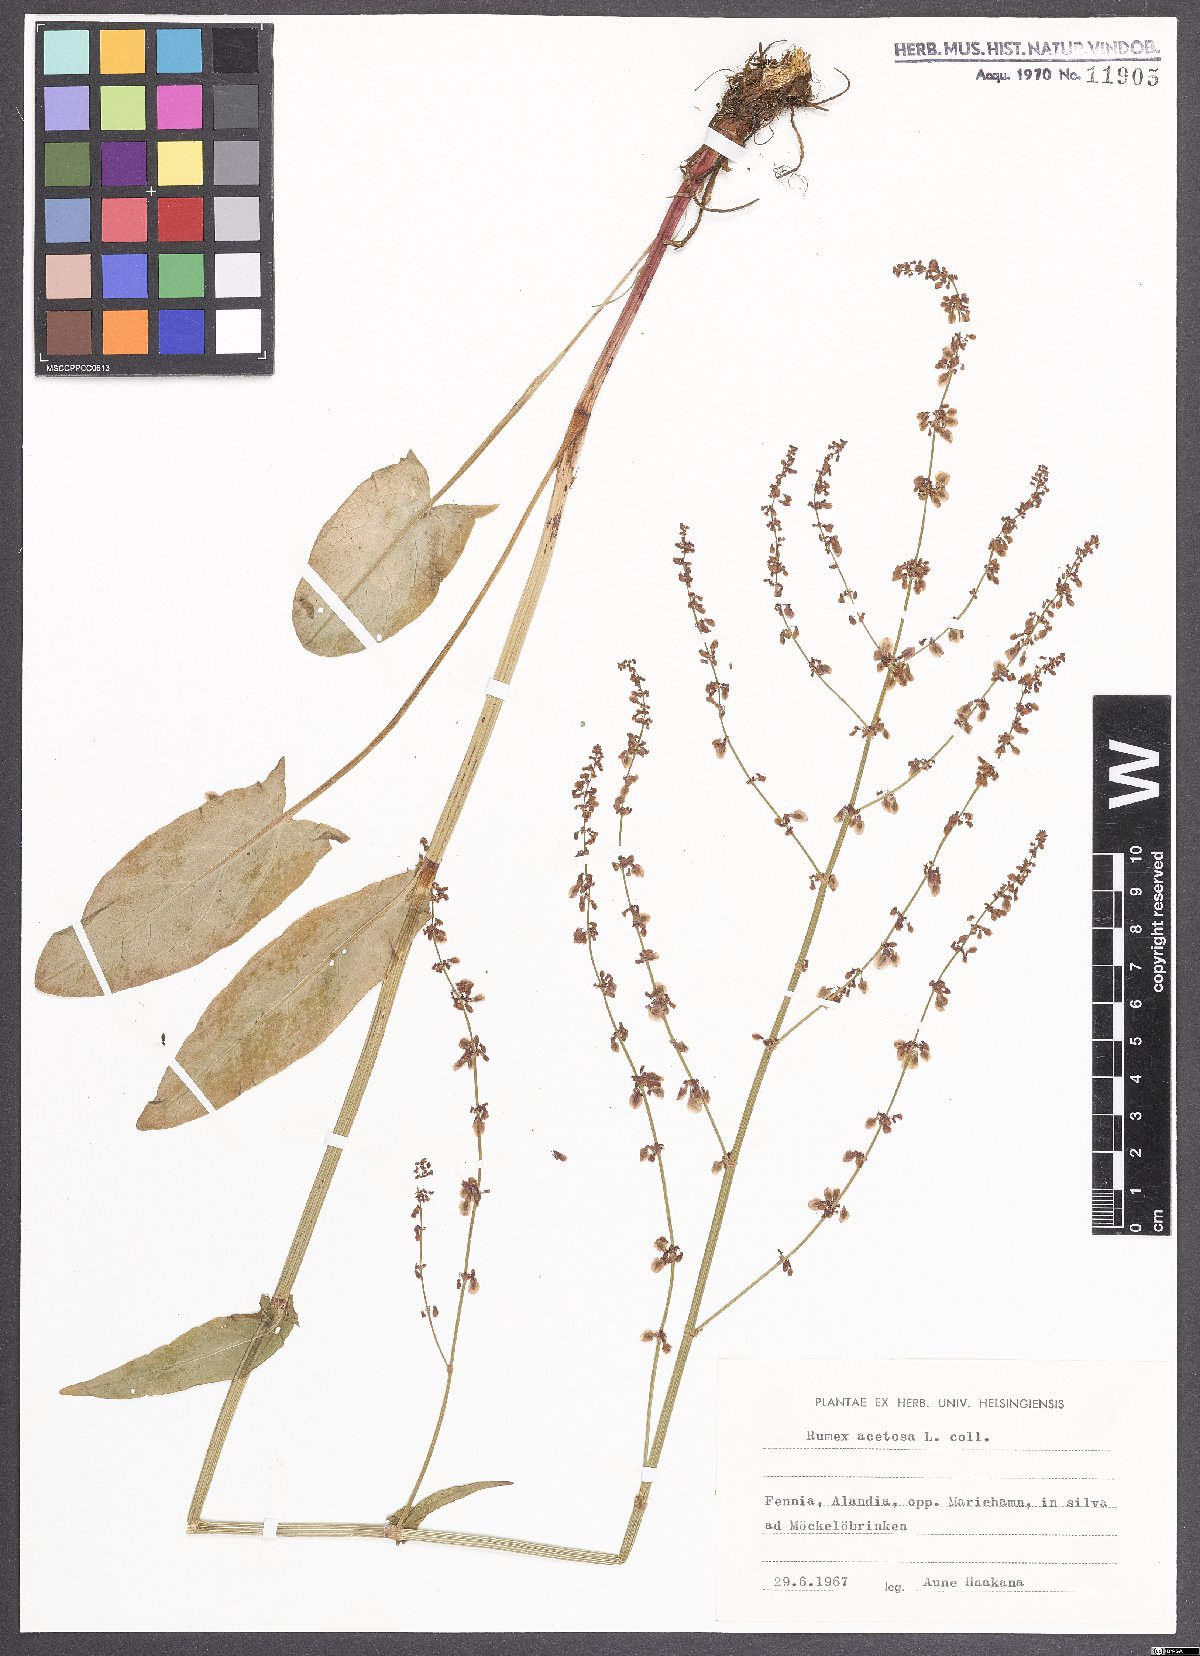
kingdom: Plantae
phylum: Tracheophyta
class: Magnoliopsida
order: Caryophyllales
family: Polygonaceae
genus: Rumex
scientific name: Rumex acetosa
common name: Garden sorrel
